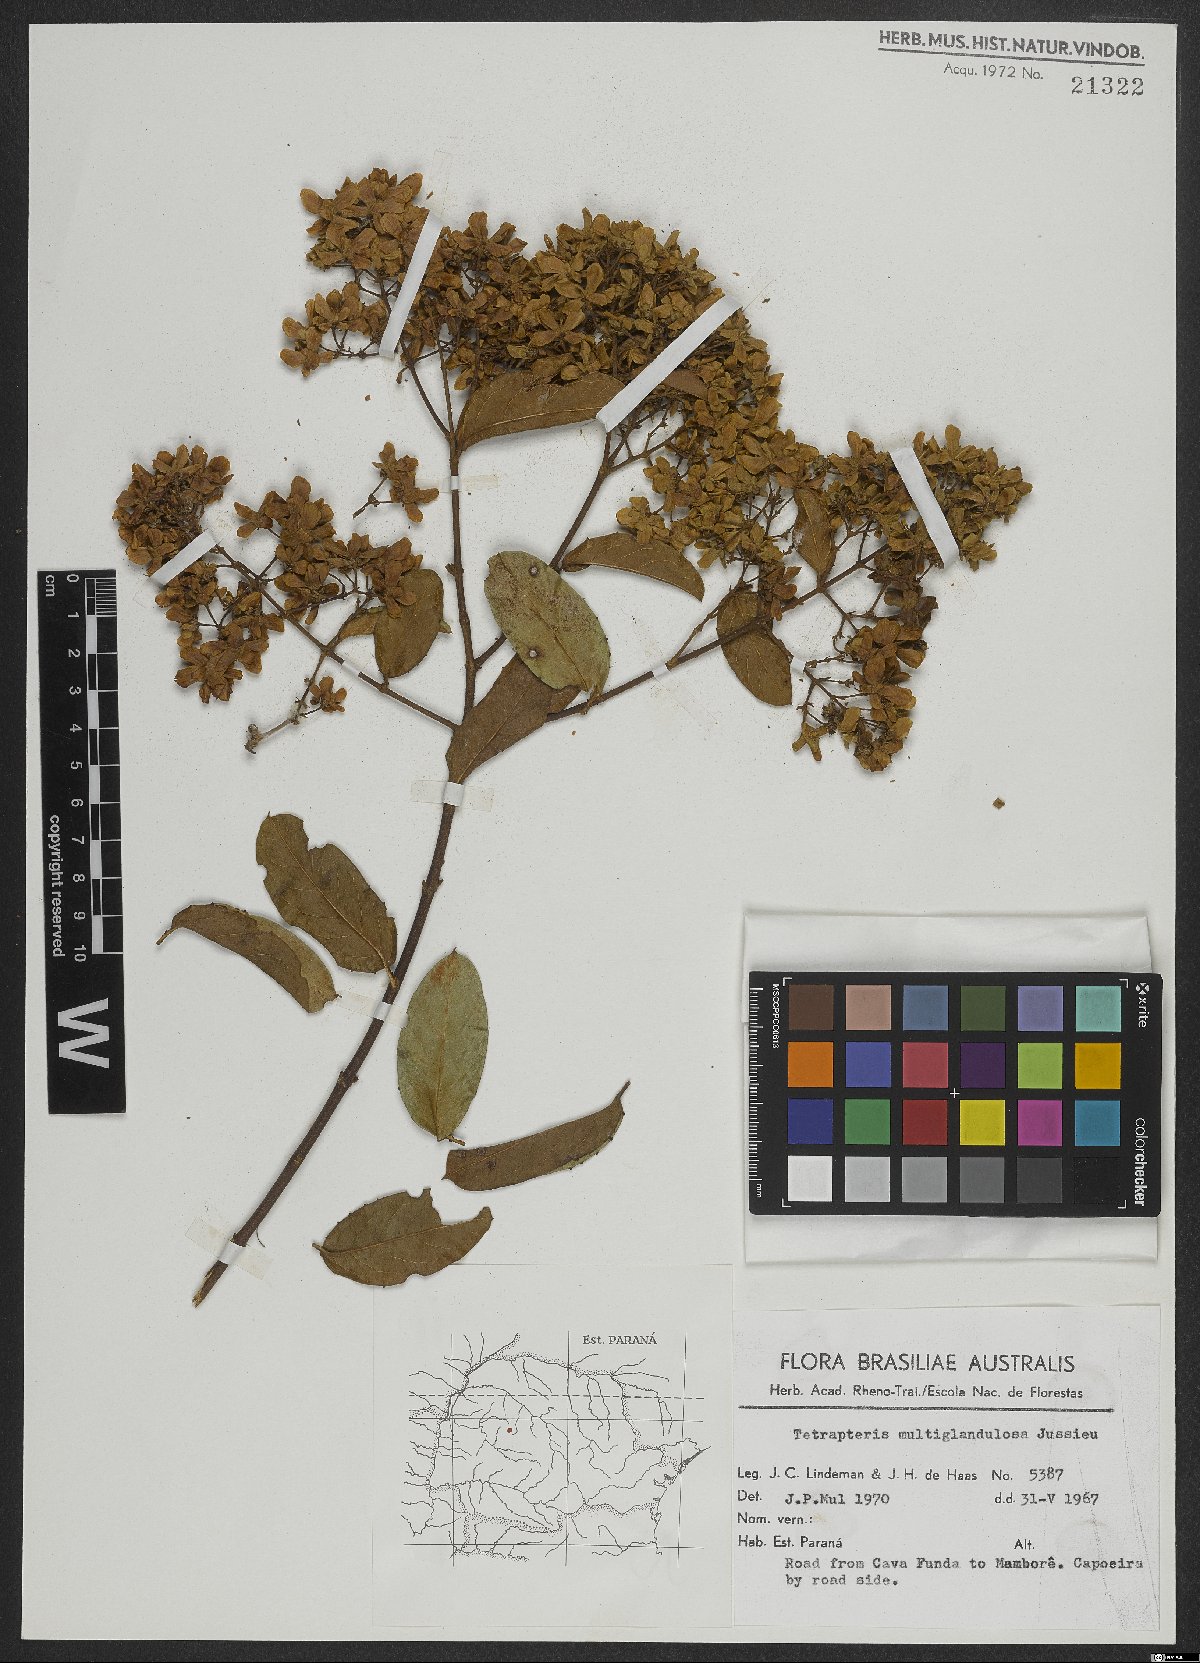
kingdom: Plantae
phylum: Tracheophyta
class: Magnoliopsida
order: Malpighiales
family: Malpighiaceae
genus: Niedenzuella
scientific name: Niedenzuella multiglandulosa
